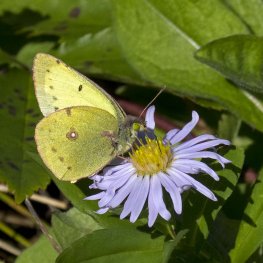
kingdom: Animalia
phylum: Arthropoda
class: Insecta
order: Lepidoptera
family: Pieridae
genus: Colias
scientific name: Colias philodice
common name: Clouded Sulphur
